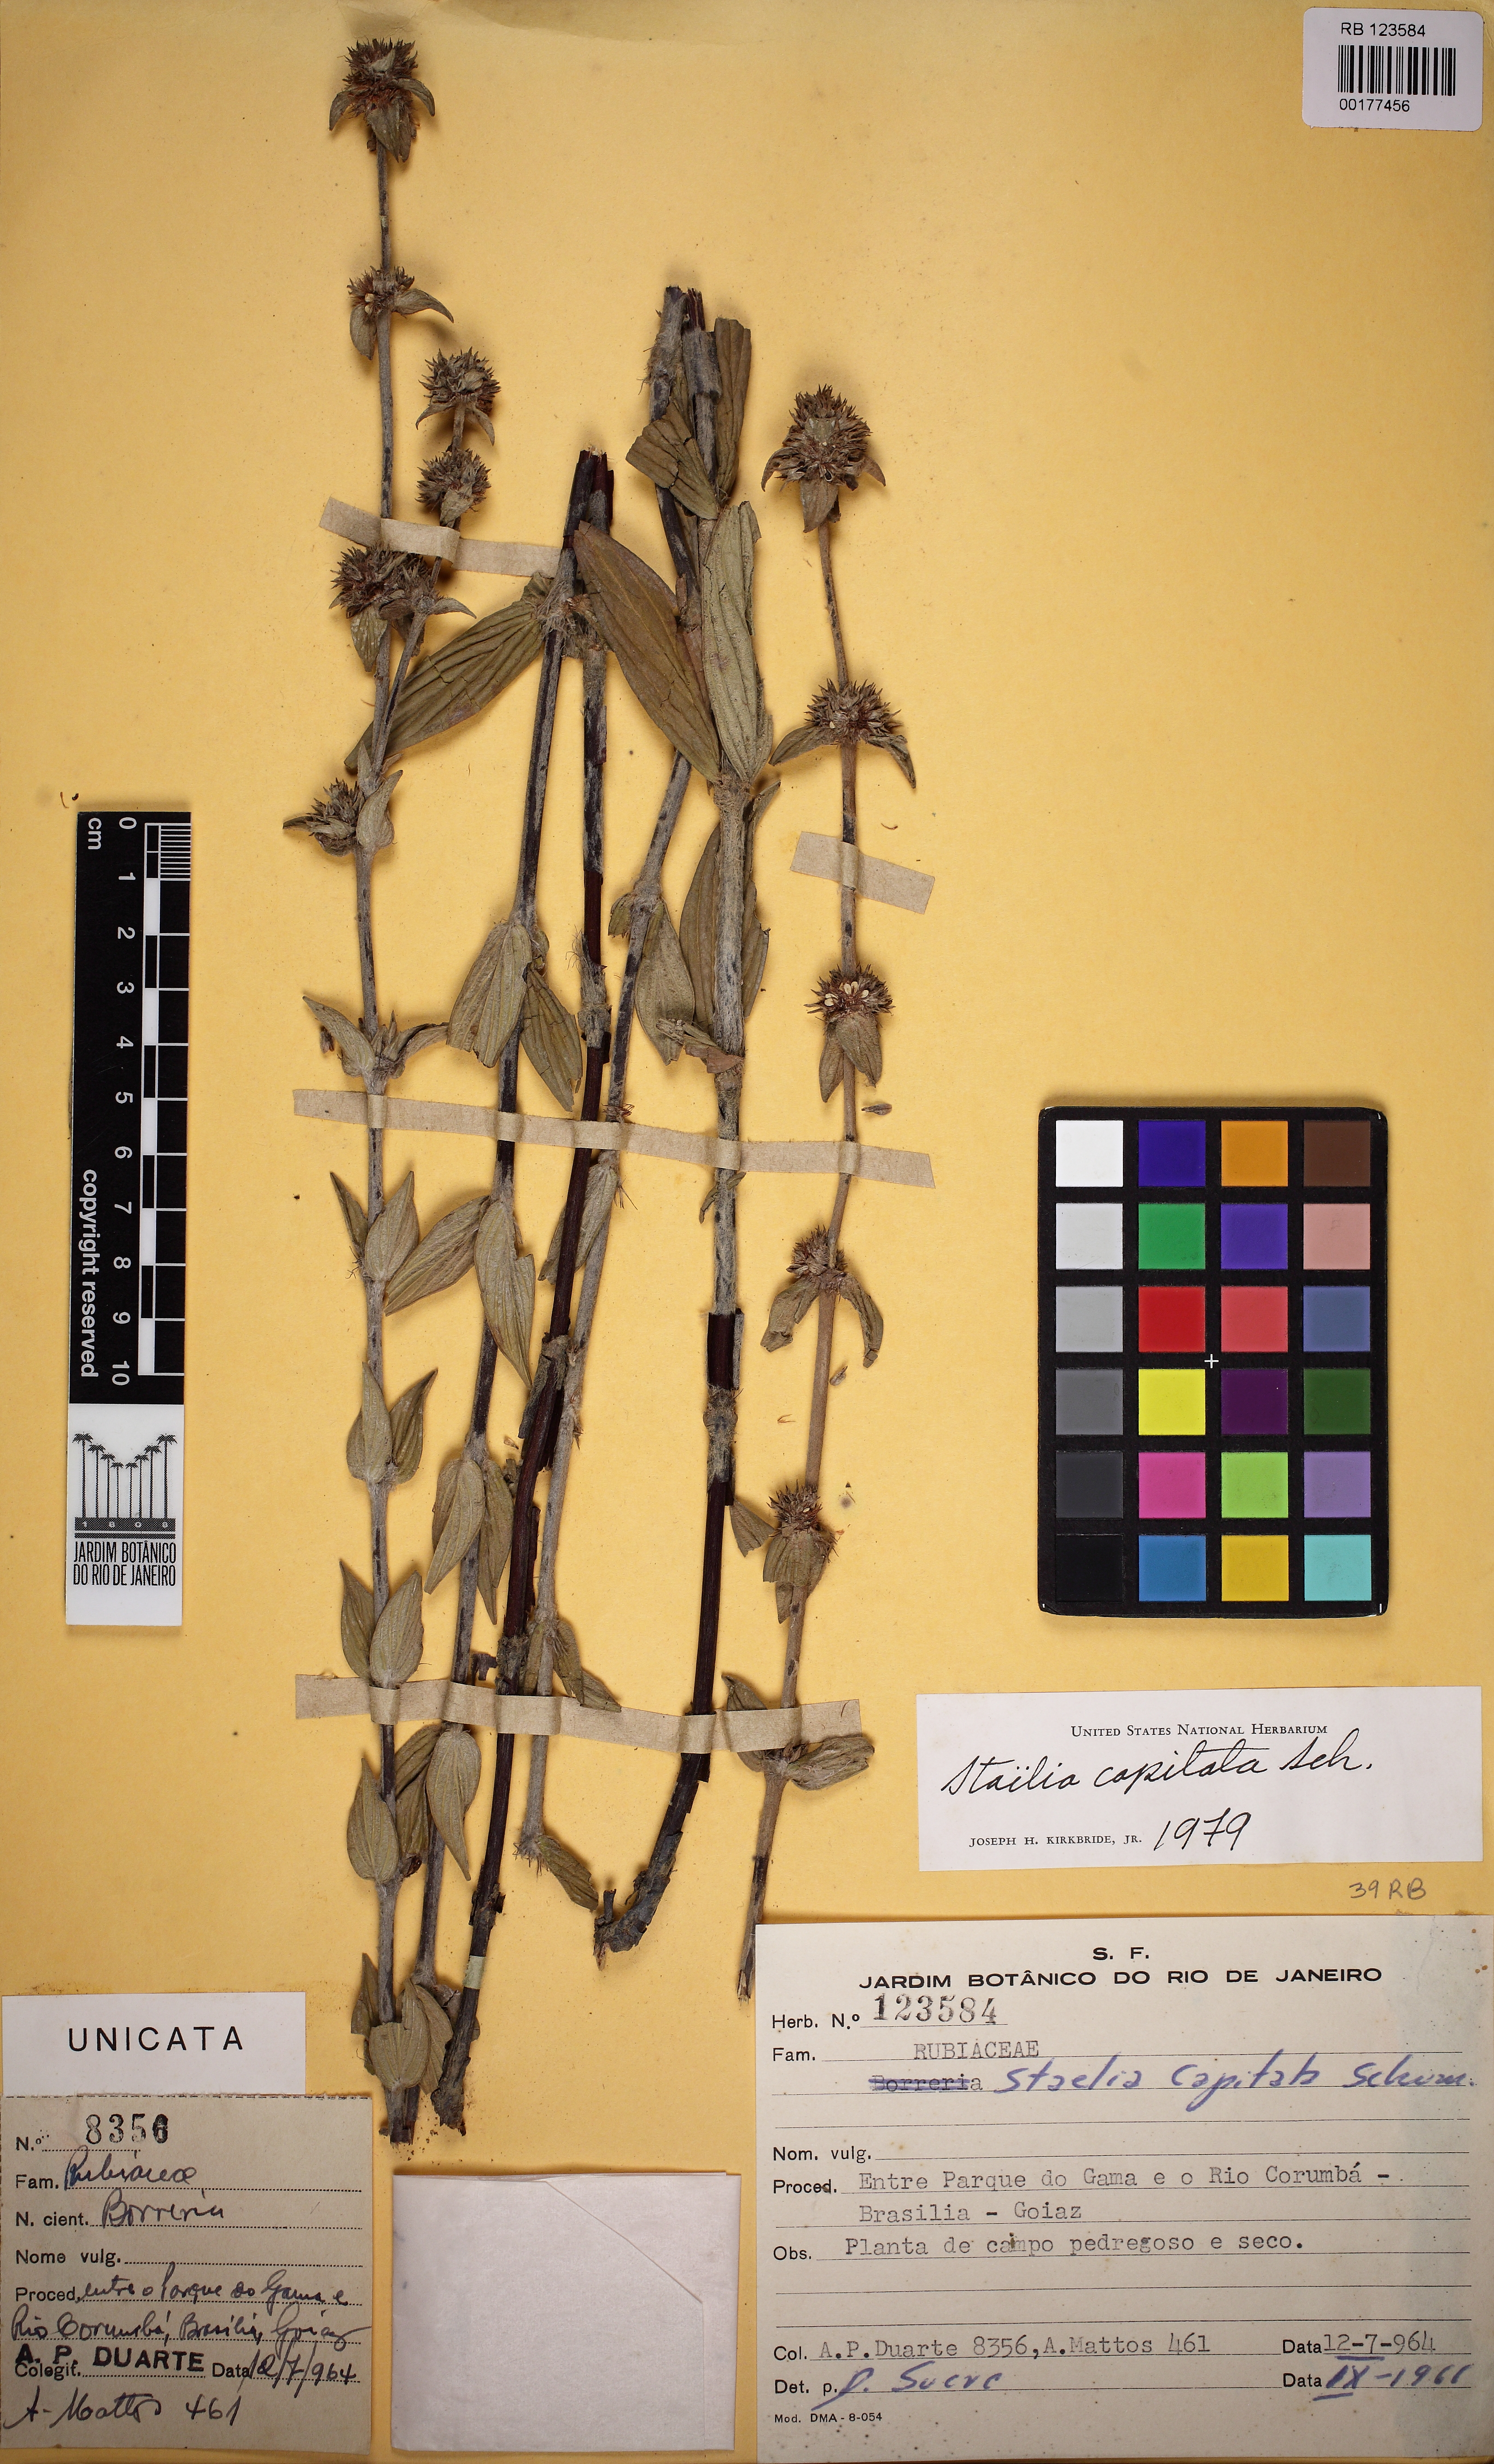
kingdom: Plantae
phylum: Tracheophyta
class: Magnoliopsida
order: Gentianales
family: Rubiaceae
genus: Planaltina
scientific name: Planaltina capitata
